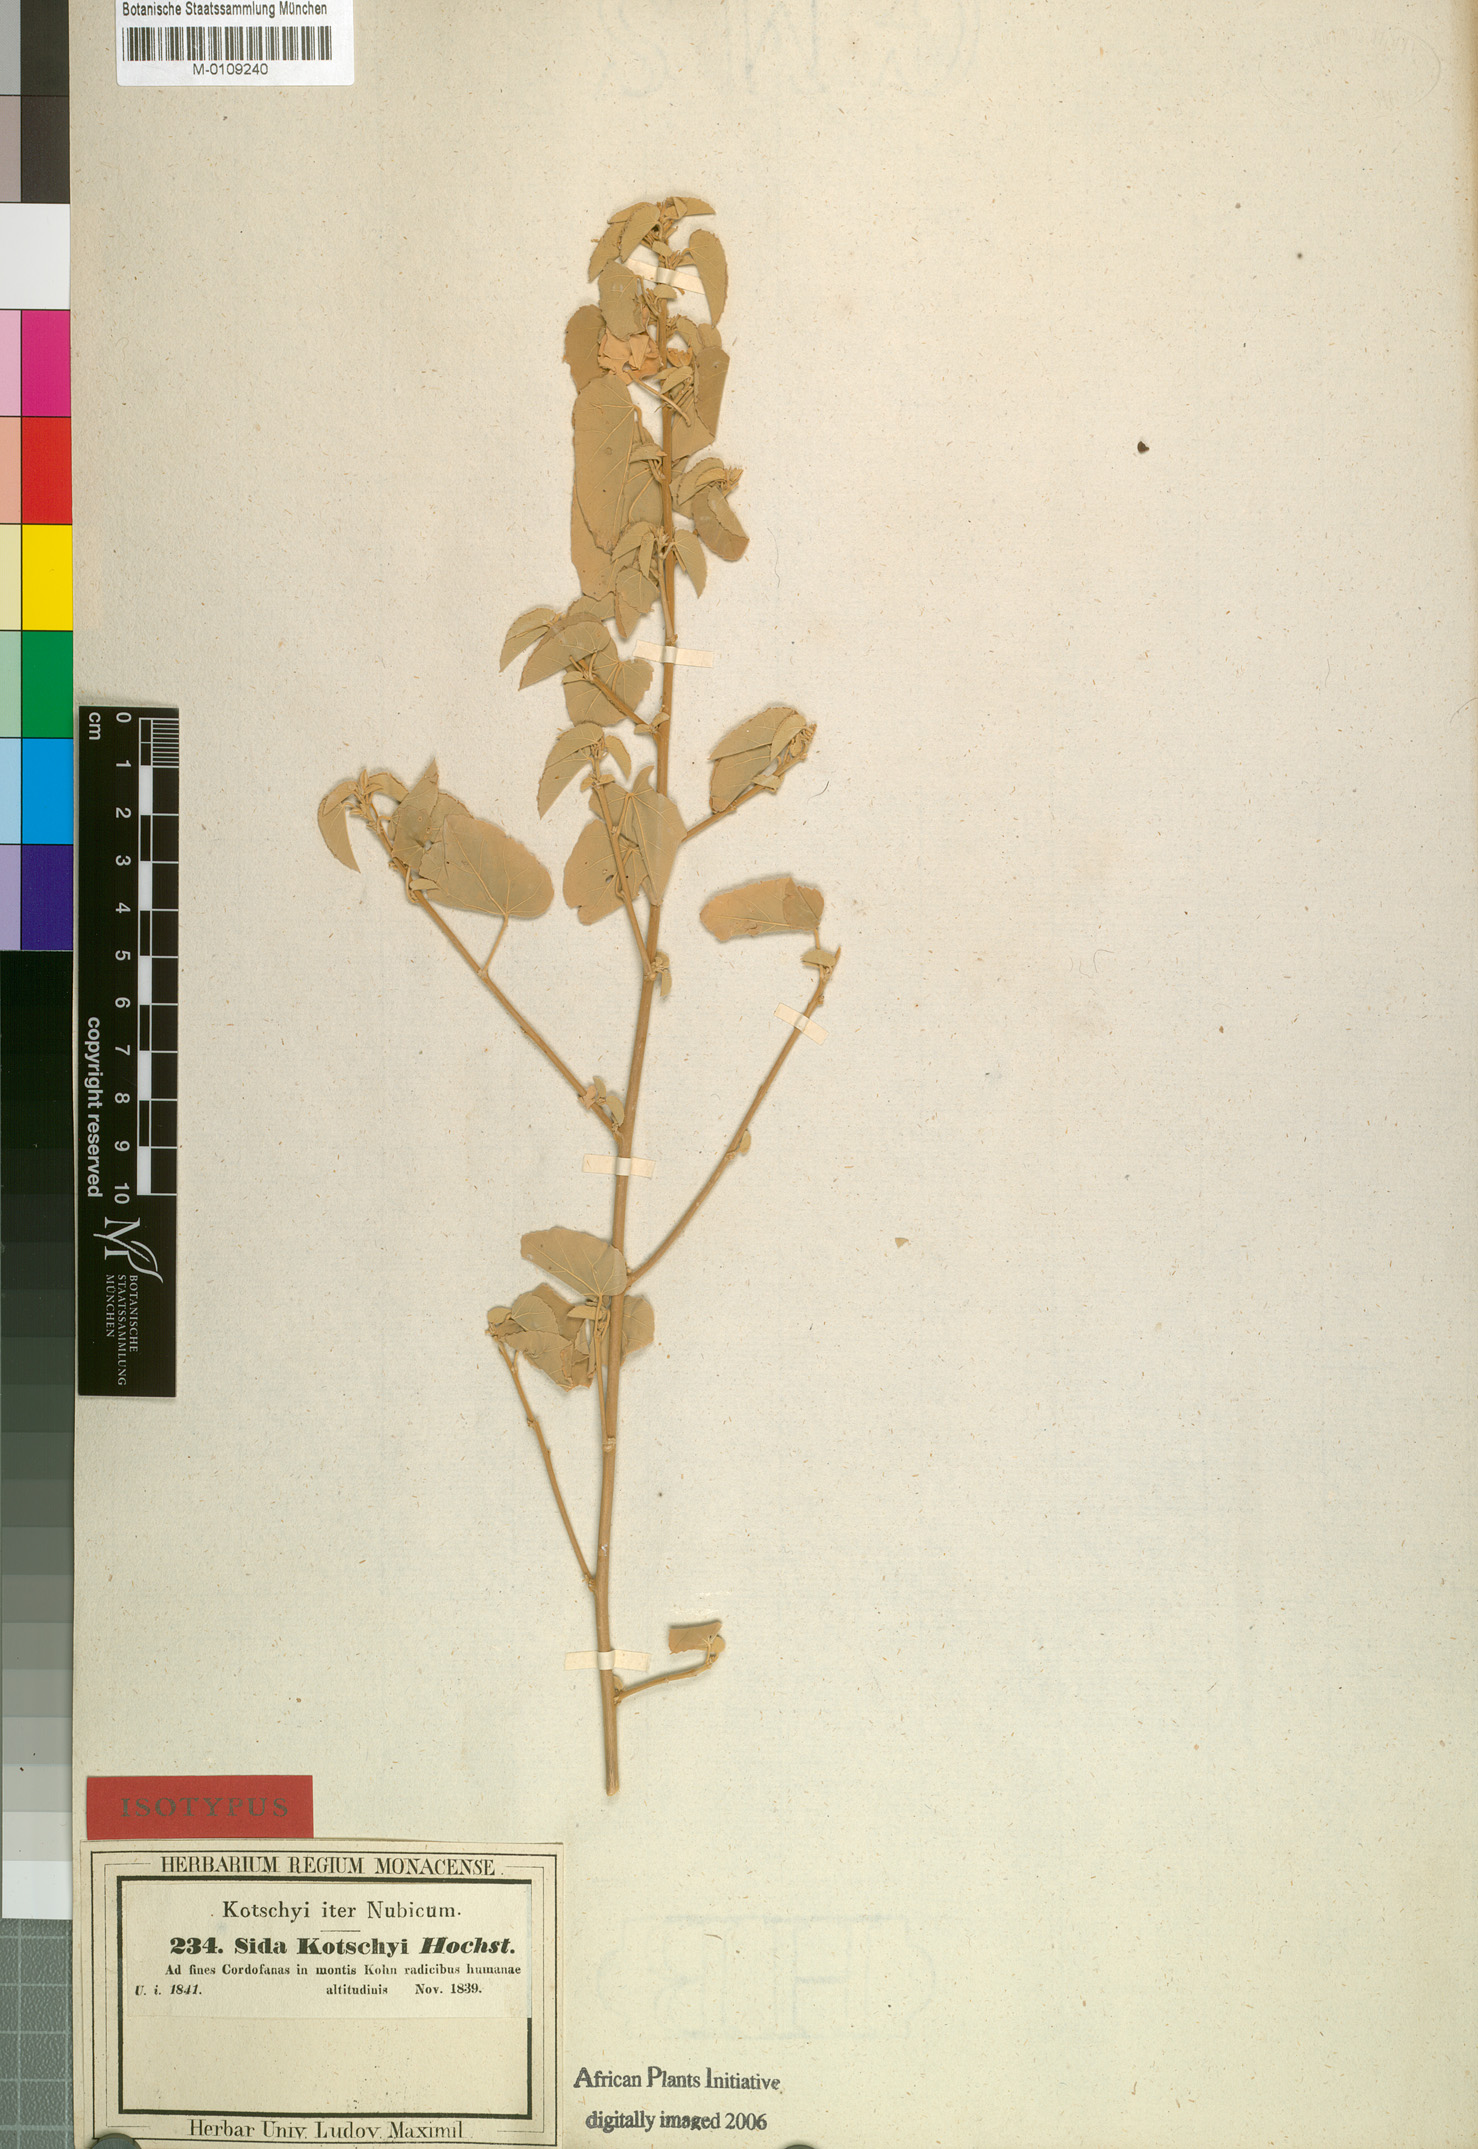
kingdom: Plantae
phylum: Tracheophyta
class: Magnoliopsida
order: Malvales
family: Malvaceae
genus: Abutilon
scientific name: Abutilon fruticosum
